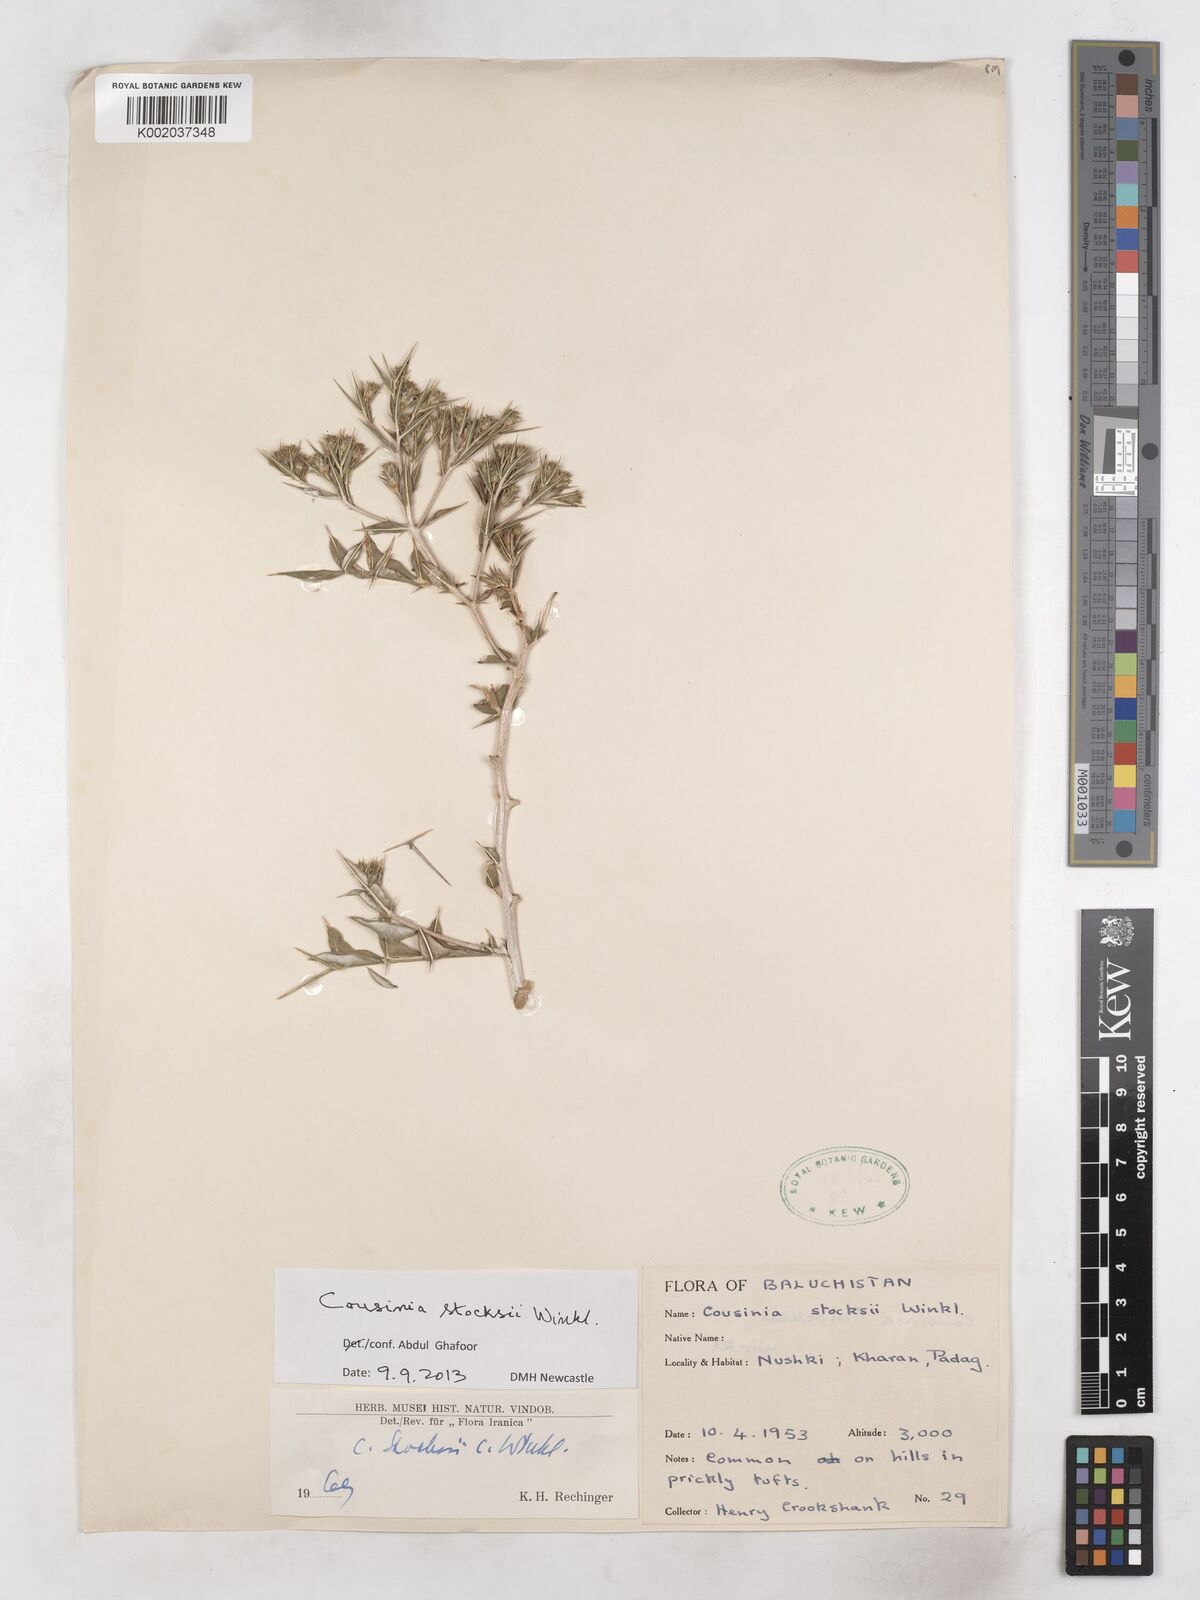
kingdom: Plantae
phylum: Tracheophyta
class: Magnoliopsida
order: Asterales
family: Asteraceae
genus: Cousinia
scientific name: Cousinia stocksii
